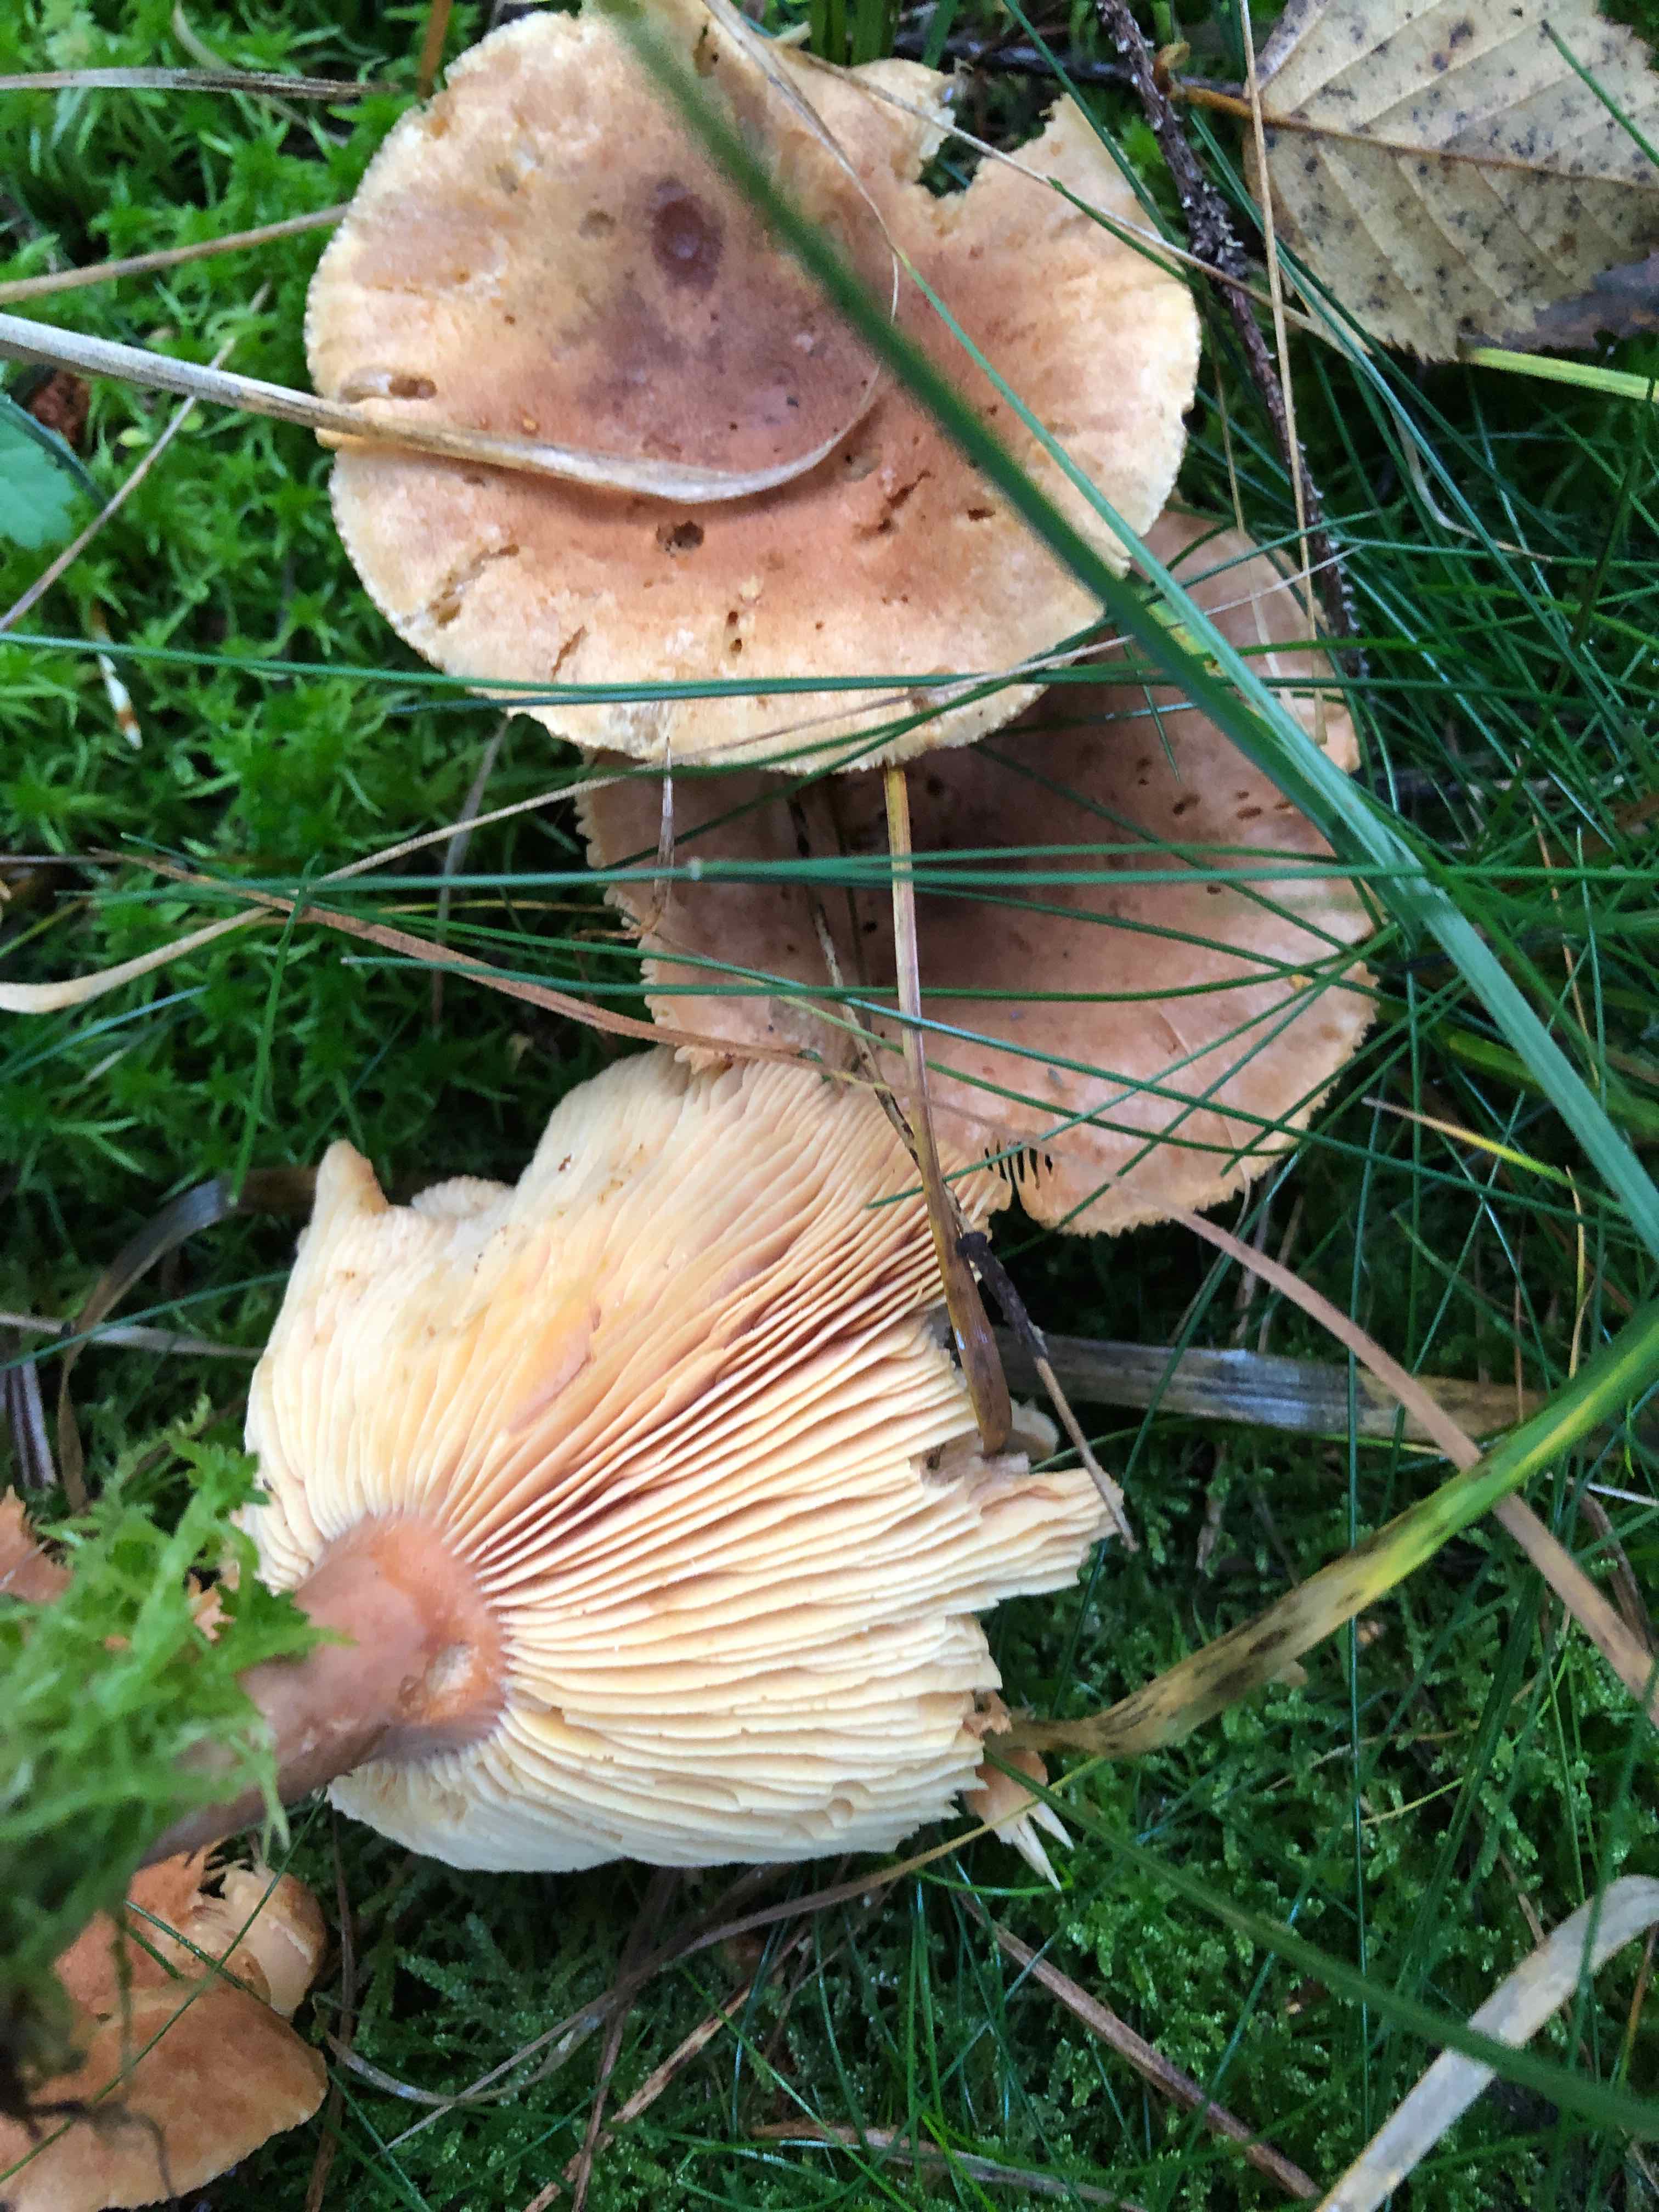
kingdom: Fungi
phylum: Basidiomycota
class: Agaricomycetes
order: Russulales
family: Russulaceae
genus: Lactarius
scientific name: Lactarius helvus
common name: mose-mælkehat
